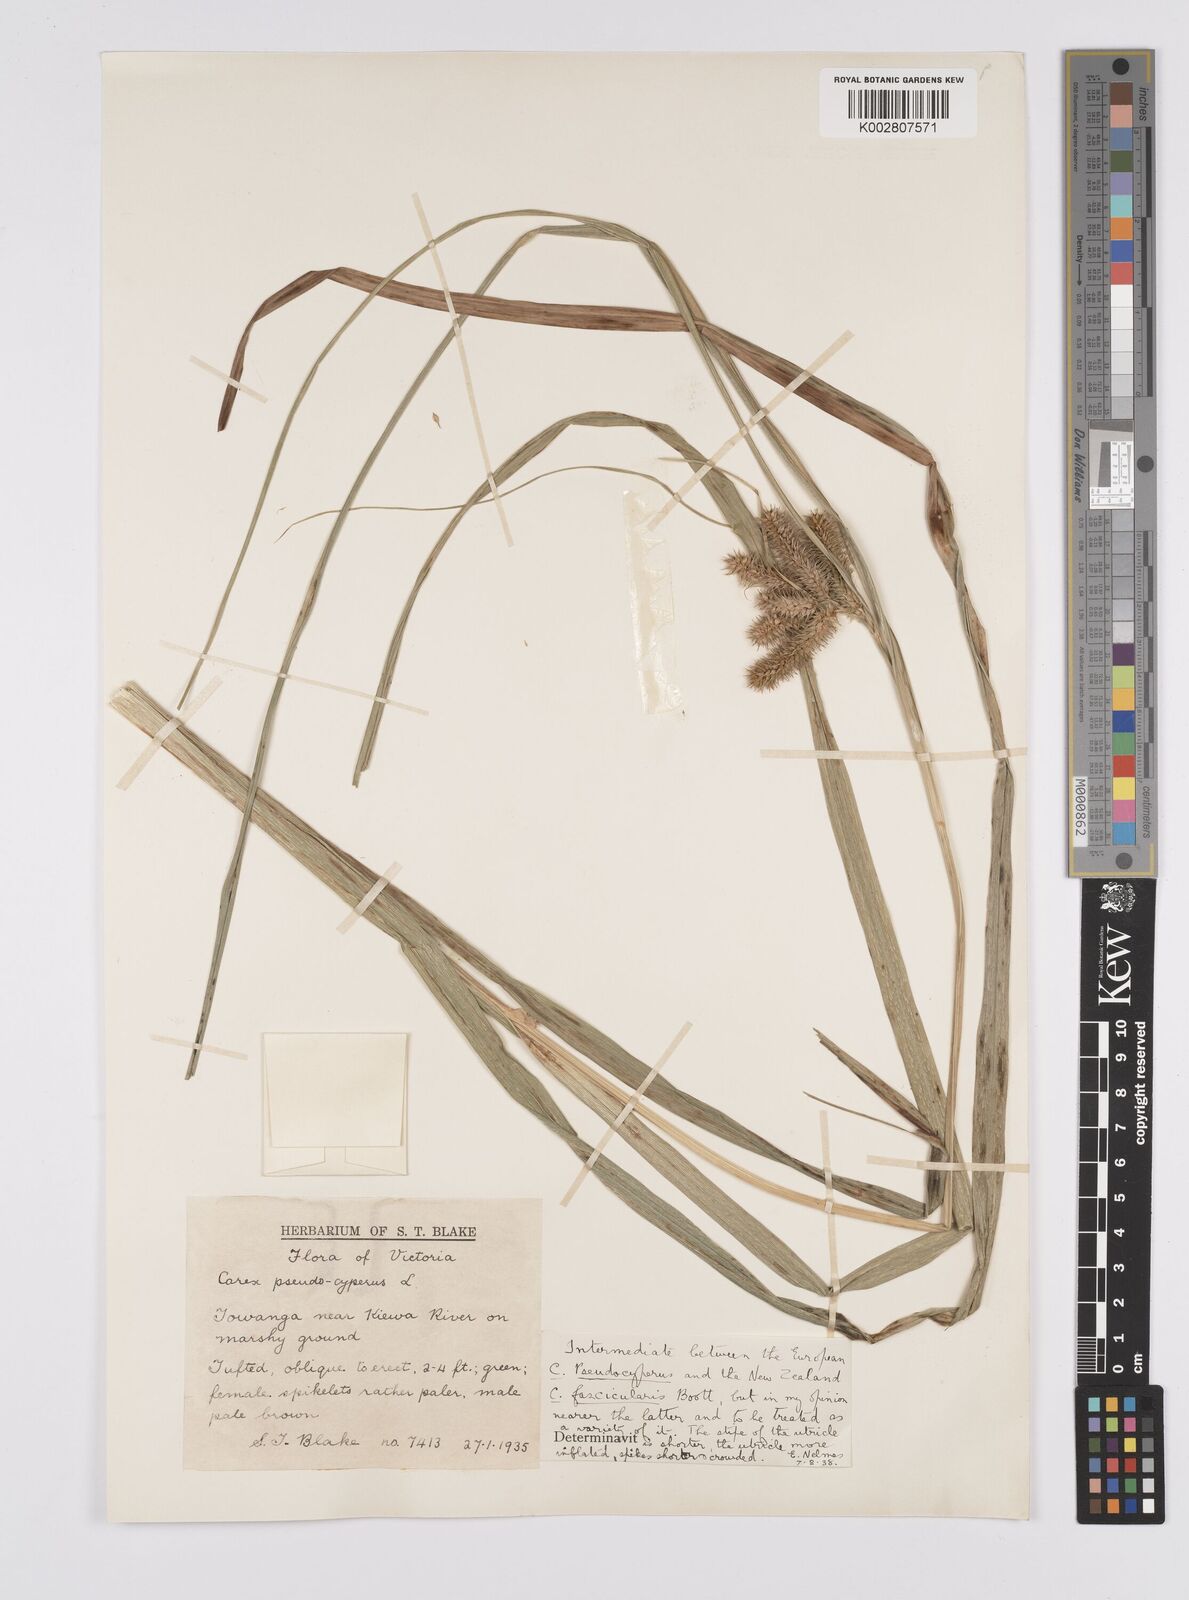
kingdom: Plantae
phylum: Tracheophyta
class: Liliopsida
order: Poales
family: Cyperaceae
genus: Carex
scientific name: Carex fascicularis
